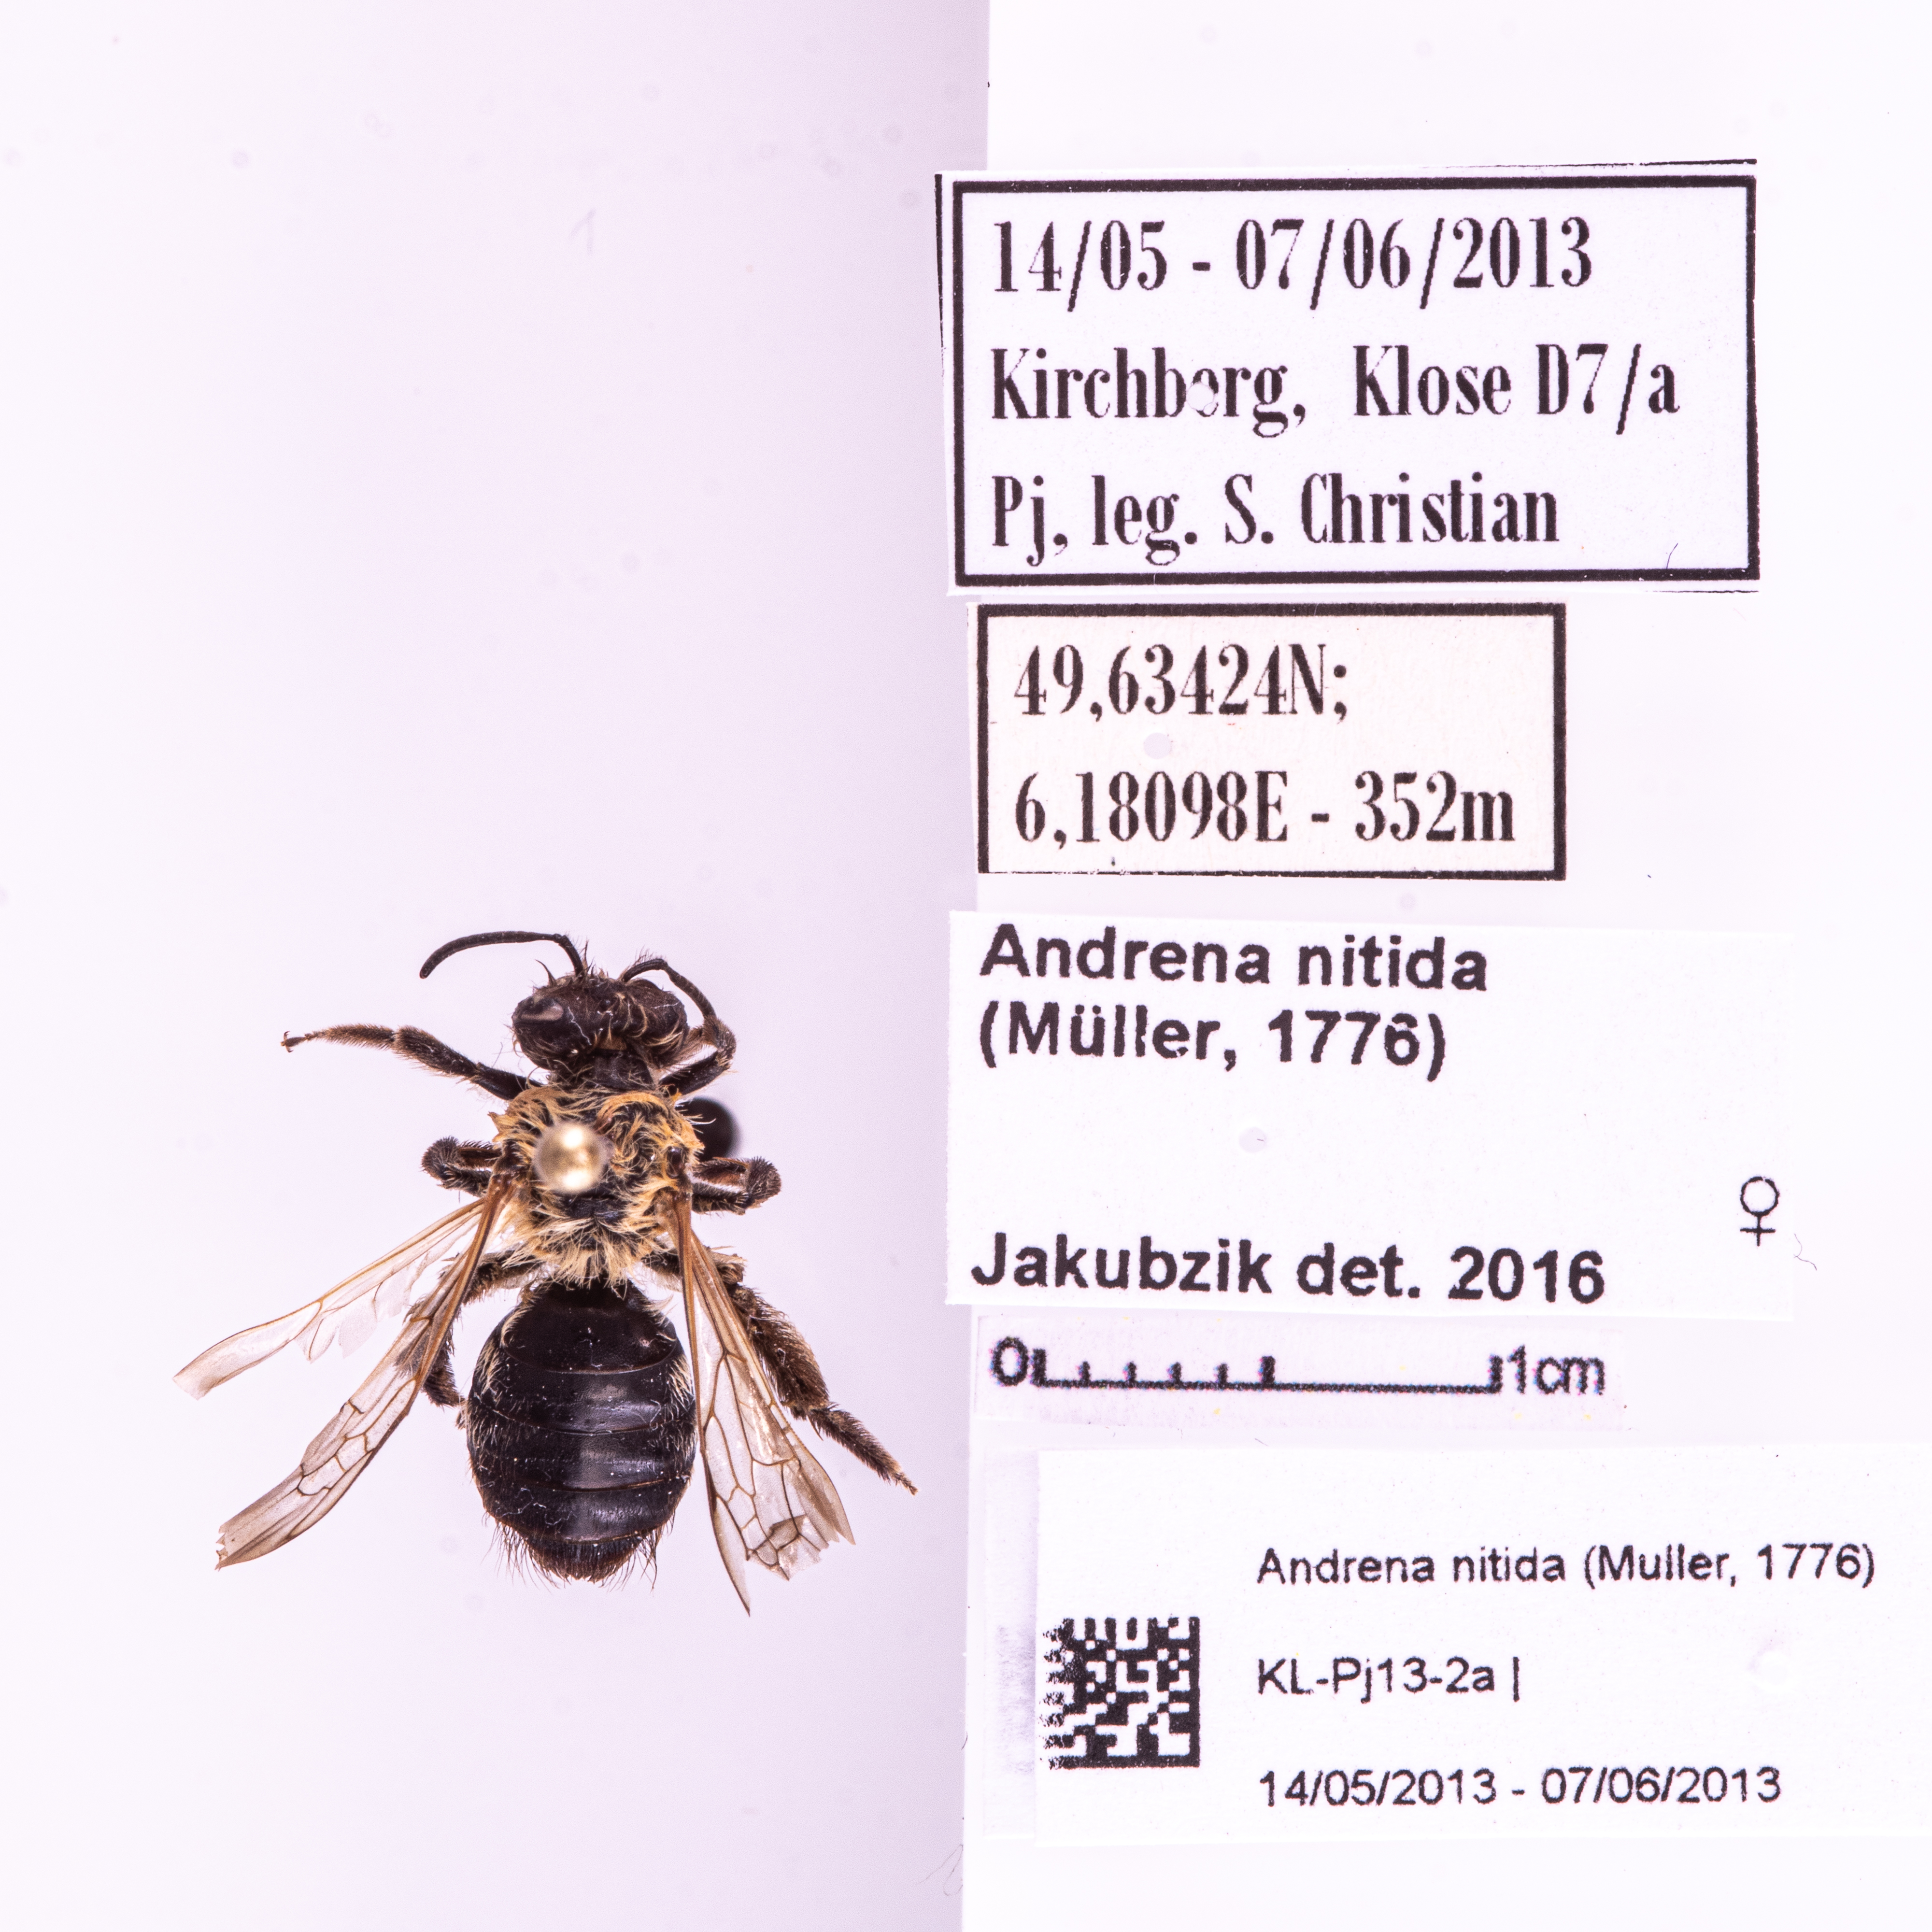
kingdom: Animalia
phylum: Arthropoda
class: Insecta
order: Hymenoptera
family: Andrenidae
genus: Andrena
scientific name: Andrena nitida
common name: Grey-patched mining bee
